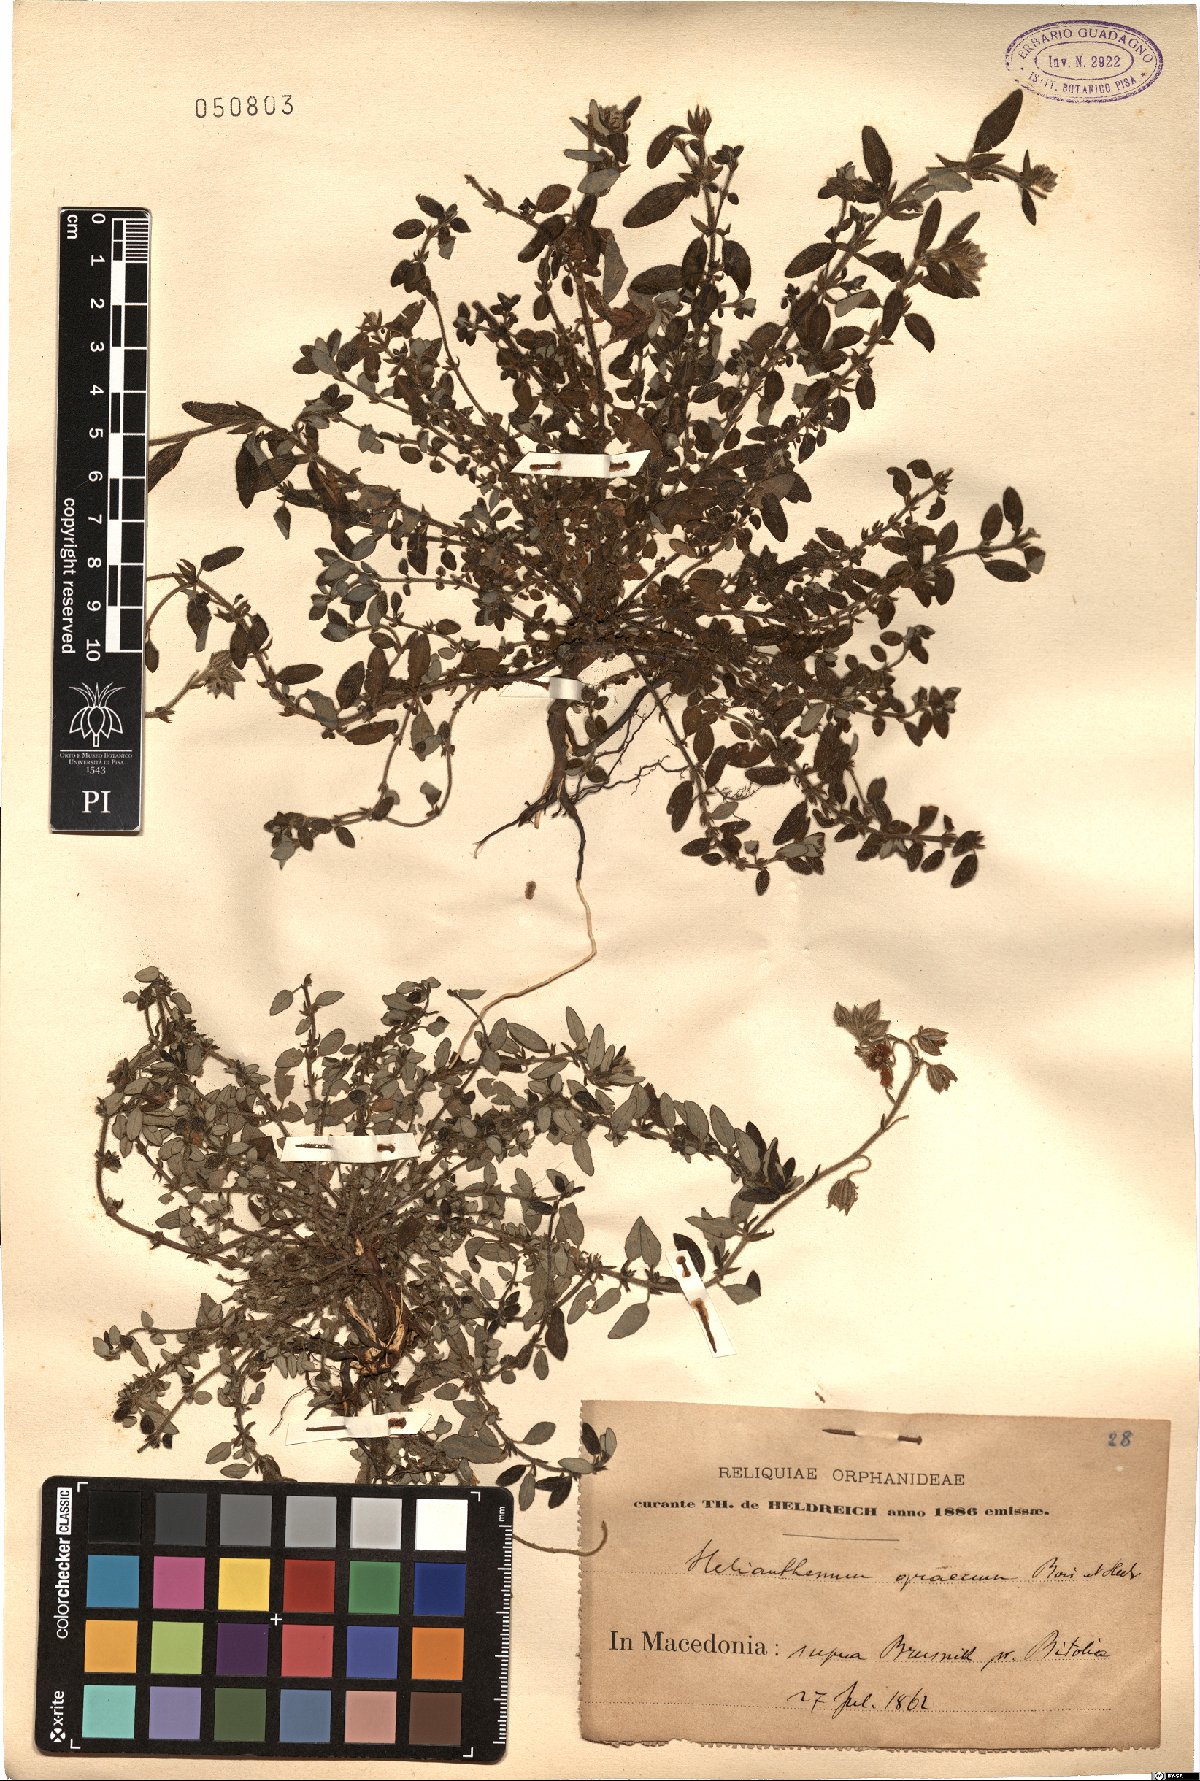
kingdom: Plantae
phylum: Tracheophyta
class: Magnoliopsida
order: Malvales
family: Cistaceae
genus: Helianthemum
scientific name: Helianthemum nummularium
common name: Common rock-rose
